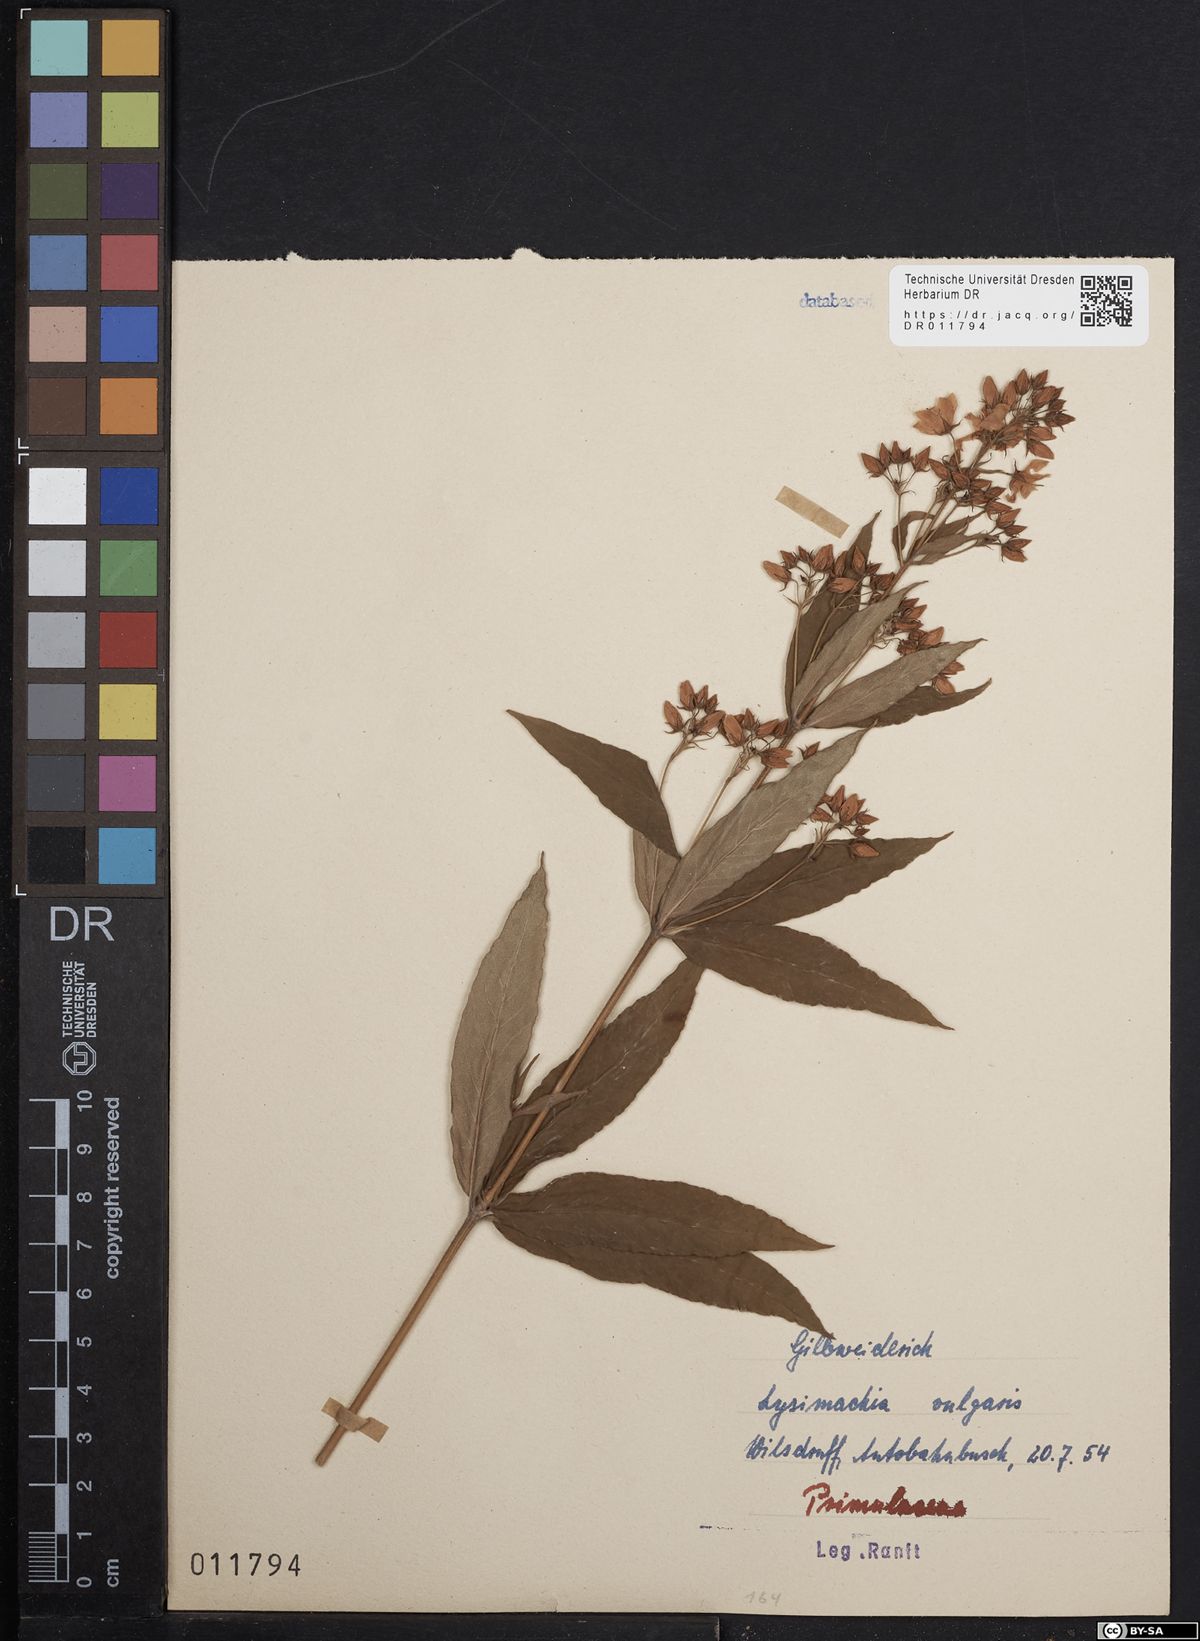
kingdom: Plantae
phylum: Tracheophyta
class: Magnoliopsida
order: Ericales
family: Primulaceae
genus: Lysimachia
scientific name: Lysimachia vulgaris
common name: Yellow loosestrife
